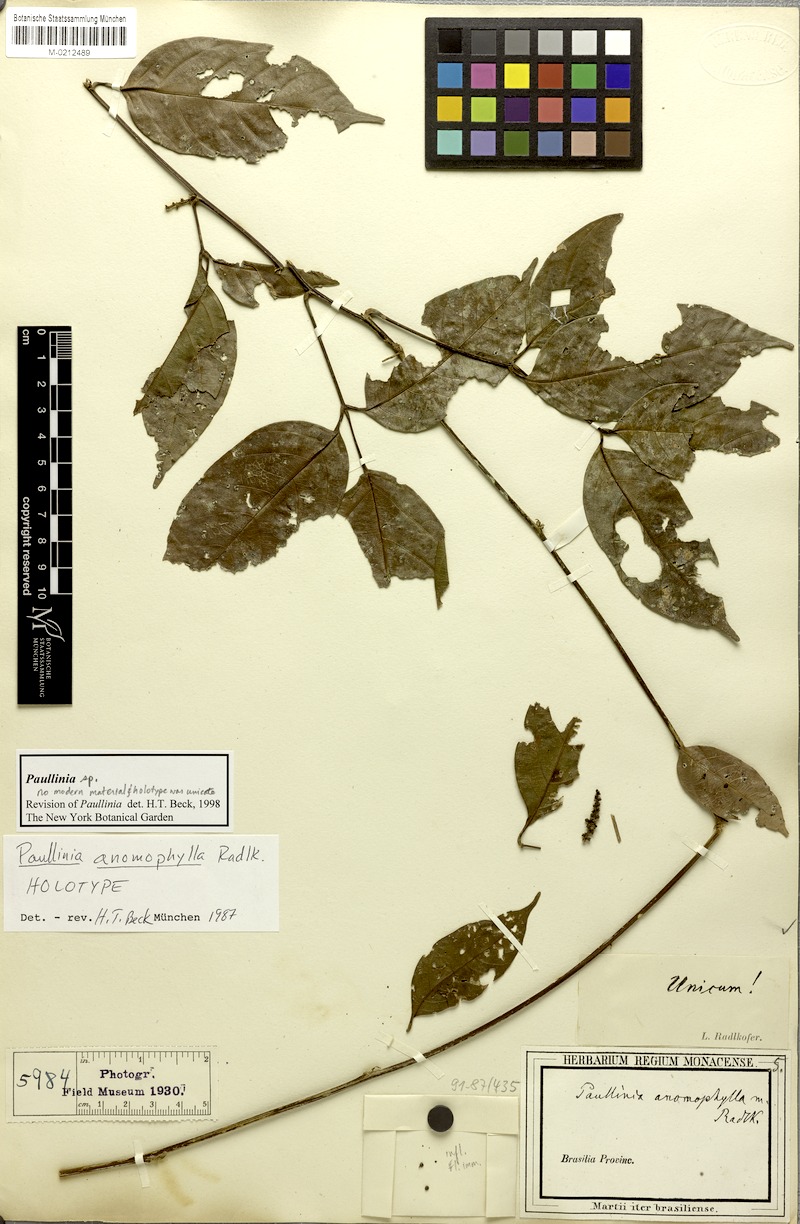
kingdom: Plantae
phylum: Tracheophyta
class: Magnoliopsida
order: Sapindales
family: Sapindaceae
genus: Paullinia
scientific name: Paullinia anomophylla
